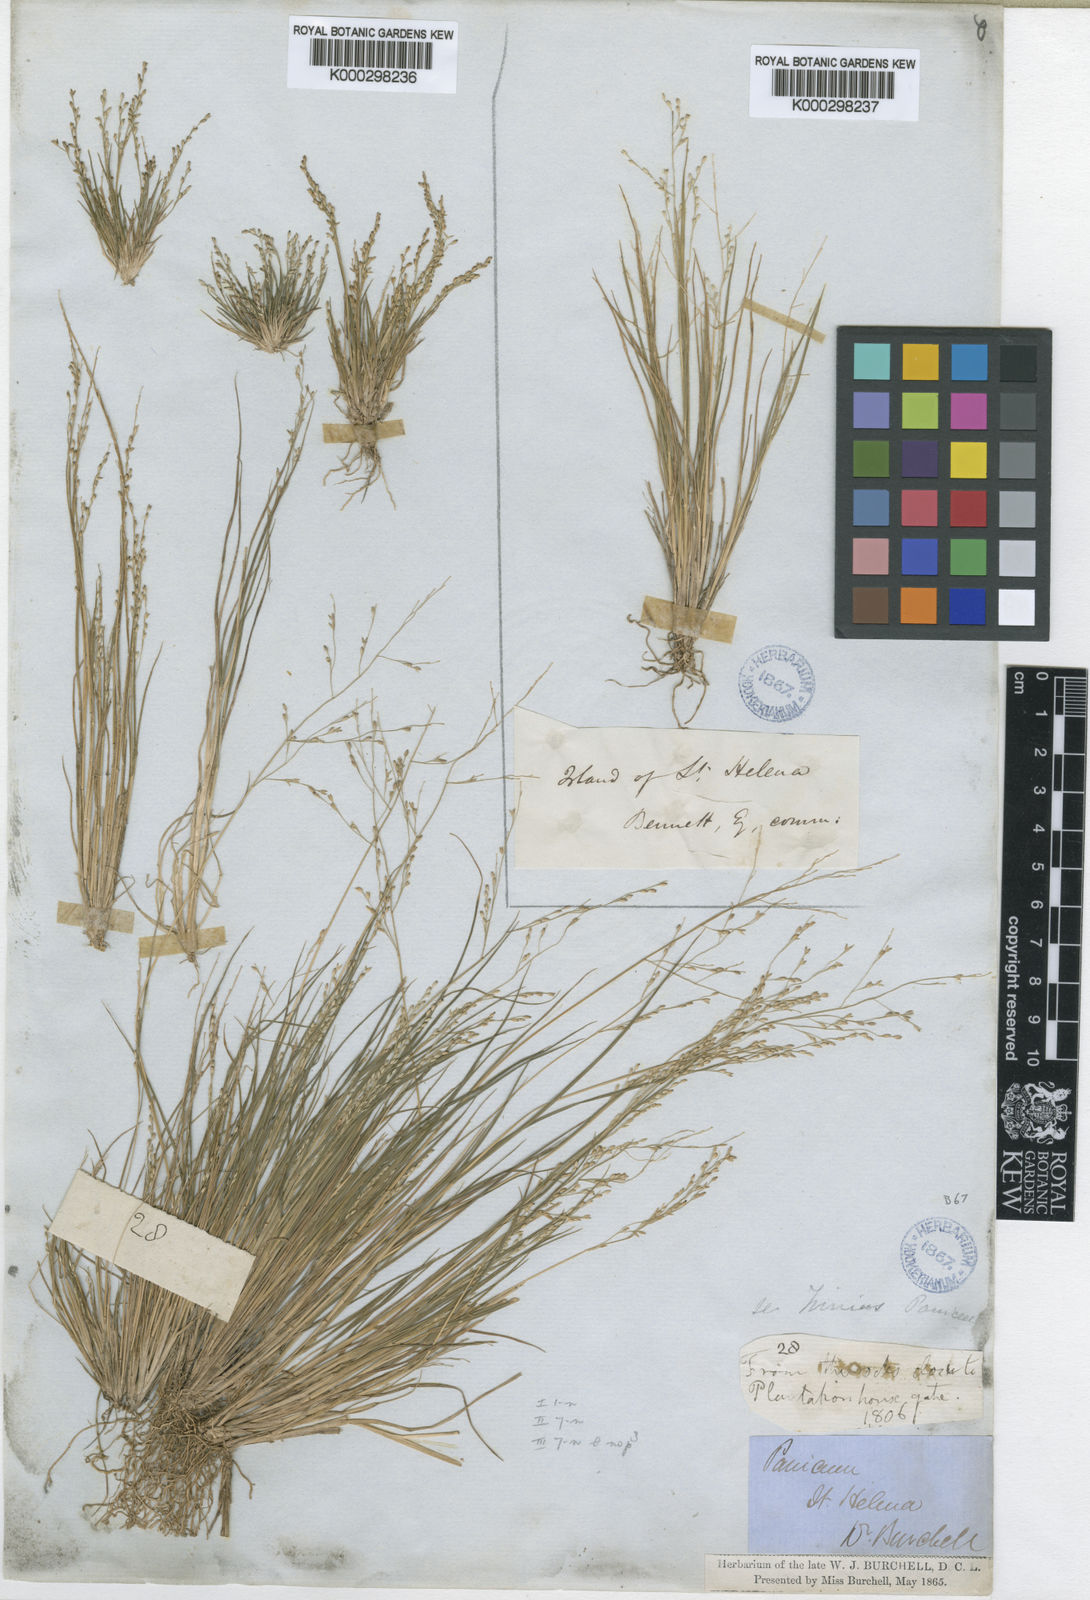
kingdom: Plantae
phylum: Tracheophyta
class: Liliopsida
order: Poales
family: Poaceae
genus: Panicum
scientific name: Panicum joshuae
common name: Rock millet
